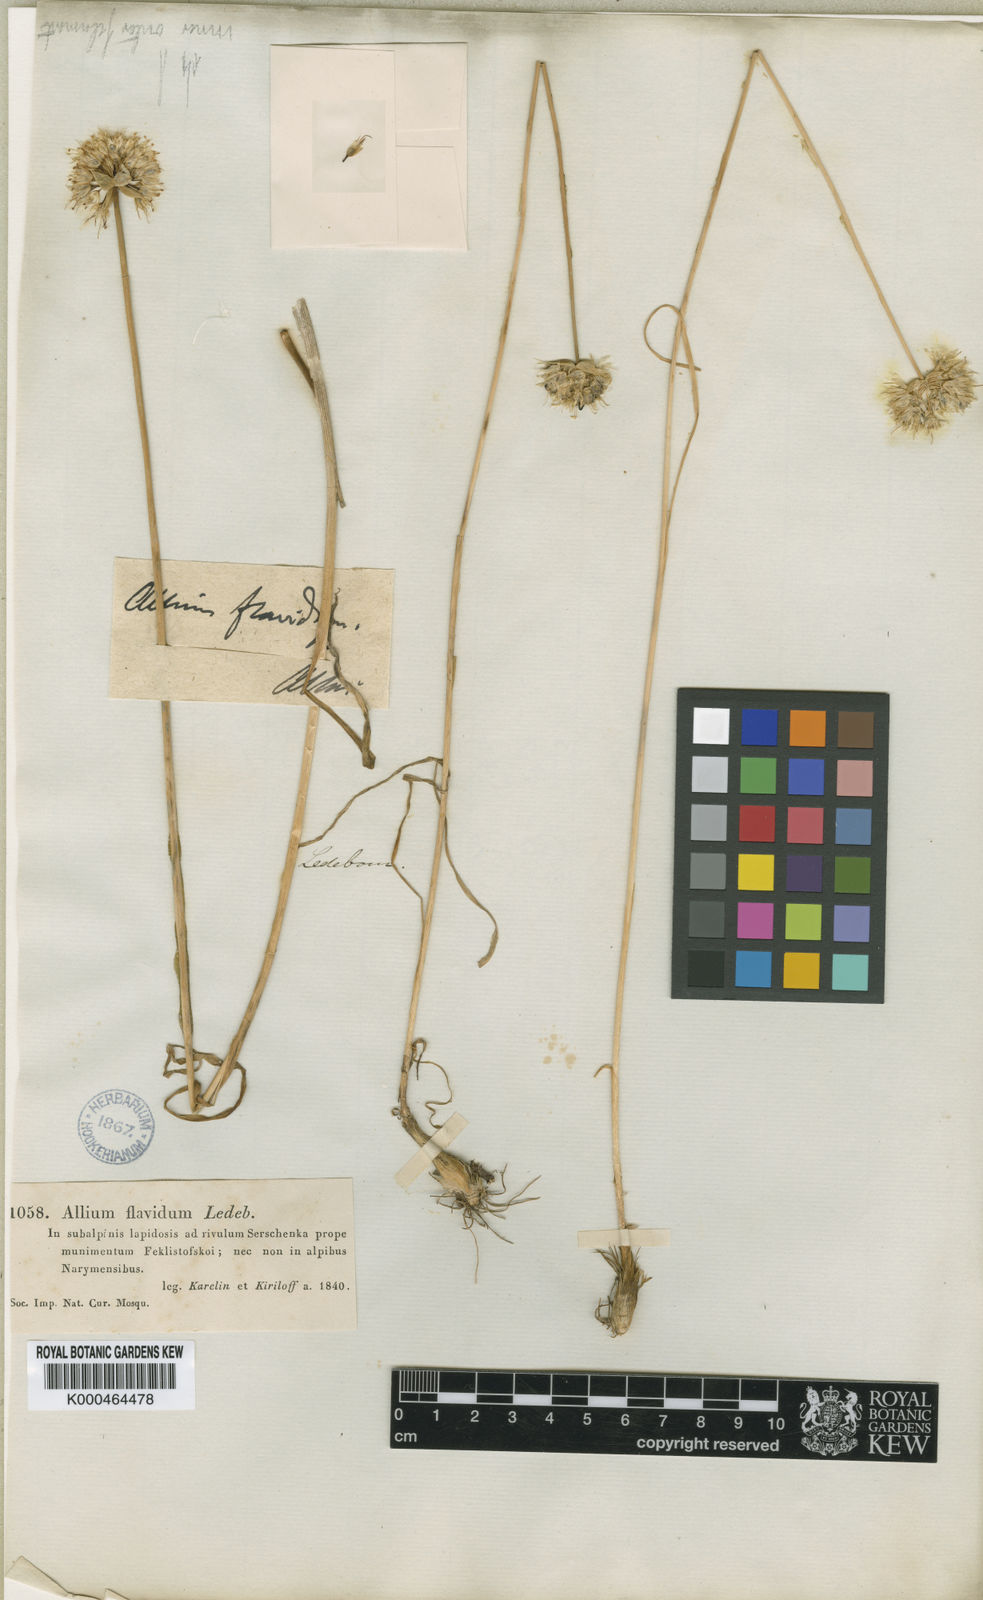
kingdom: Plantae
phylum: Tracheophyta
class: Liliopsida
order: Asparagales
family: Amaryllidaceae
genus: Allium
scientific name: Allium flavidum
